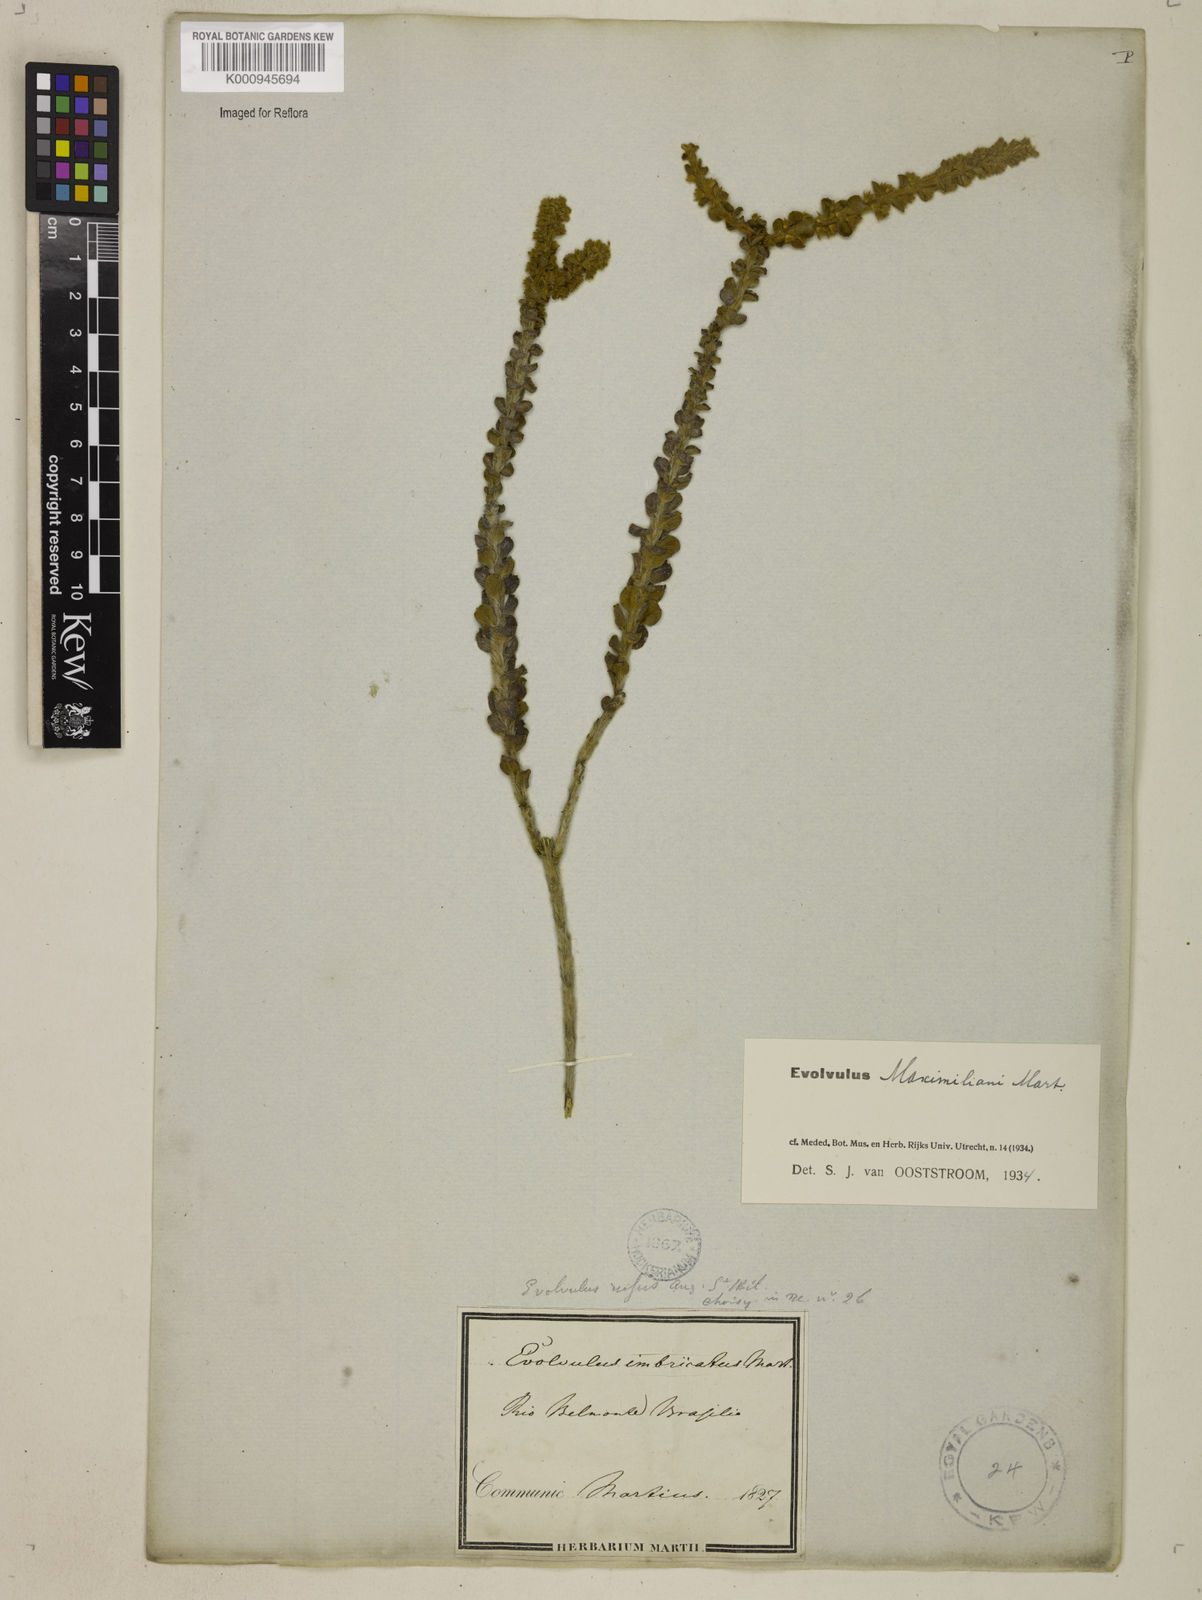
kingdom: Plantae
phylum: Tracheophyta
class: Magnoliopsida
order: Solanales
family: Convolvulaceae
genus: Evolvulus
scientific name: Evolvulus maximiliani
